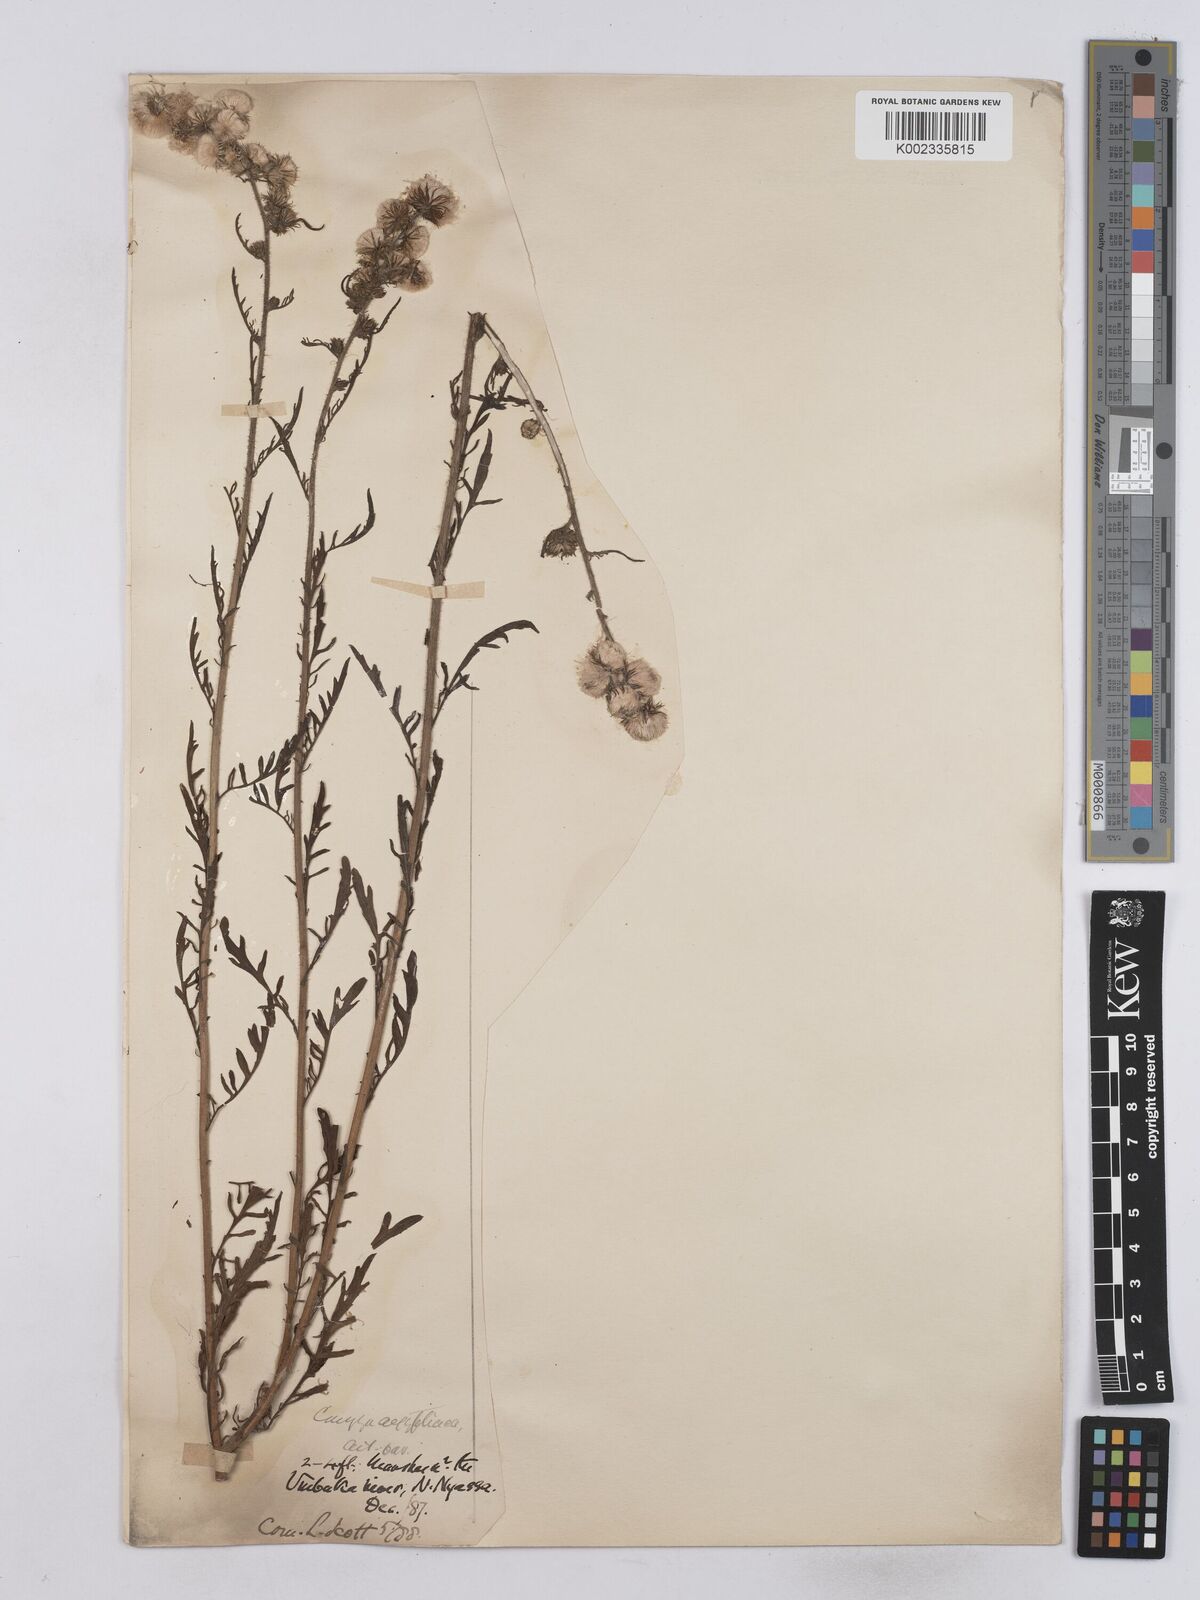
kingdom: Plantae
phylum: Tracheophyta
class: Magnoliopsida
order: Asterales
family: Asteraceae
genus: Nidorella
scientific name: Nidorella aegyptiaca
